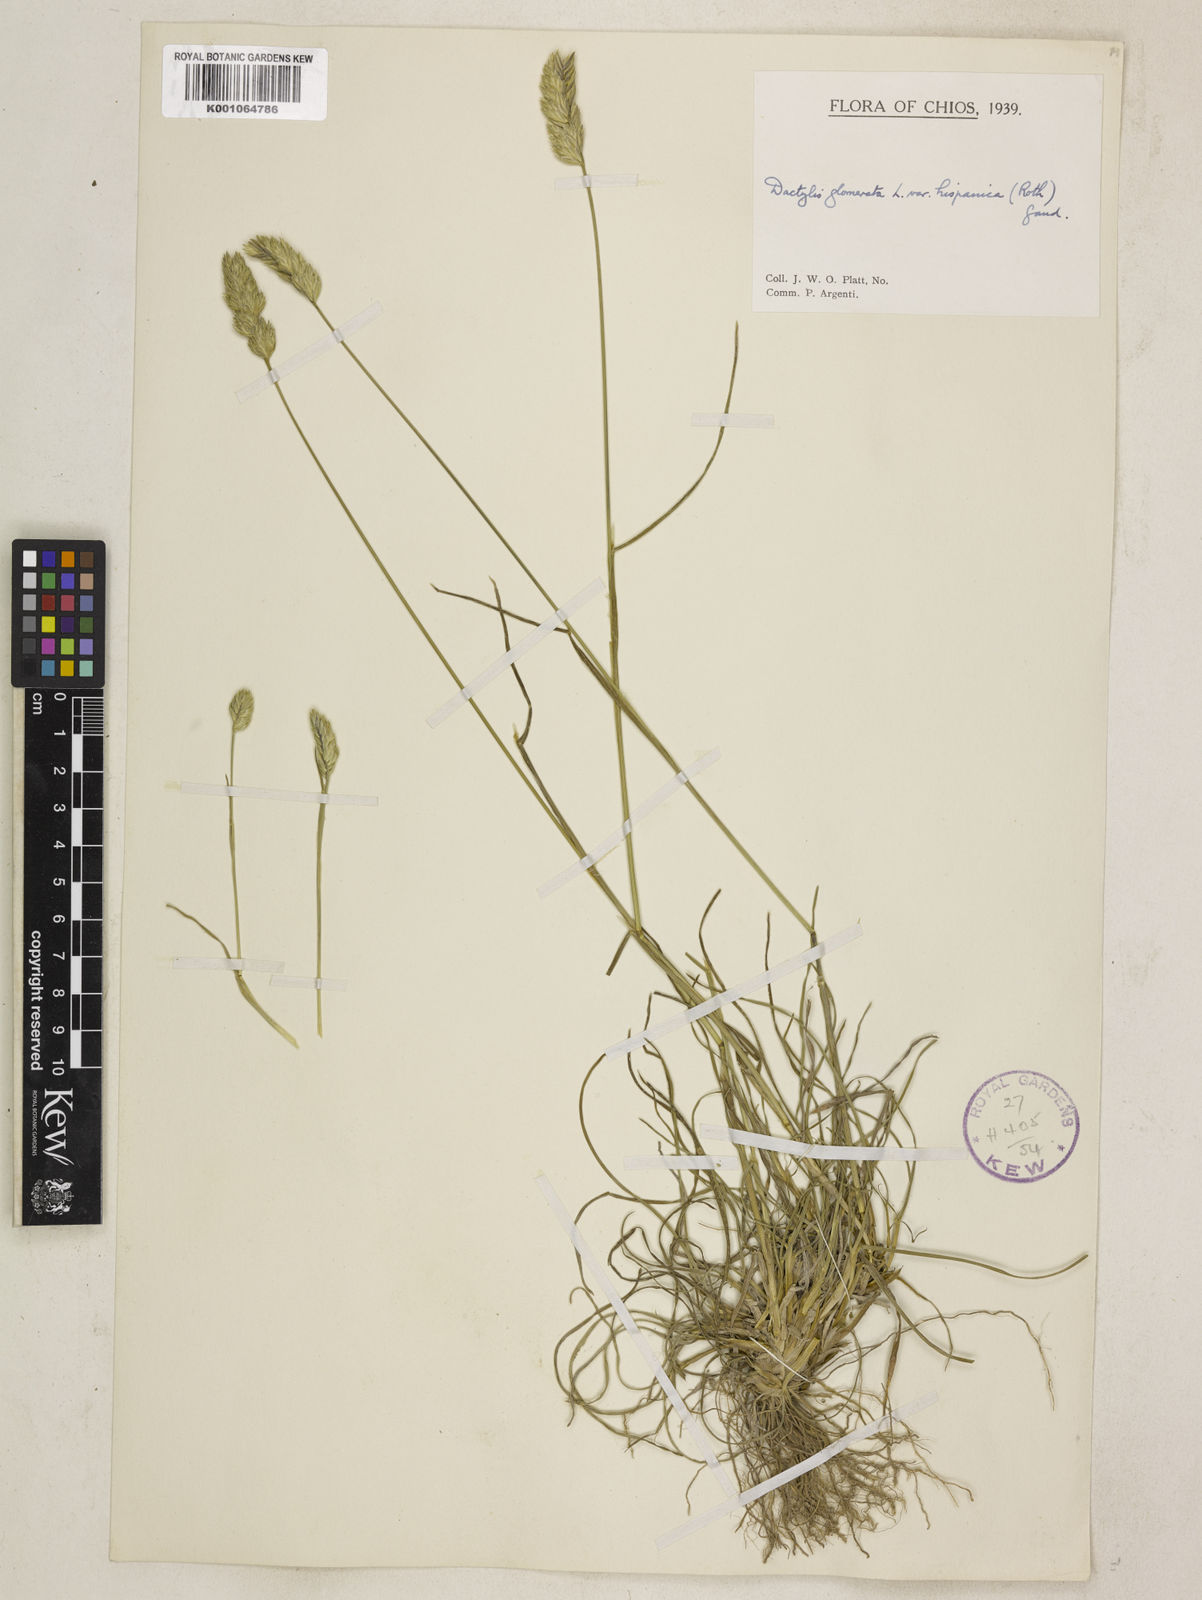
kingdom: Plantae
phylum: Tracheophyta
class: Liliopsida
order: Poales
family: Poaceae
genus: Dactylis
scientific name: Dactylis glomerata
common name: Orchardgrass
